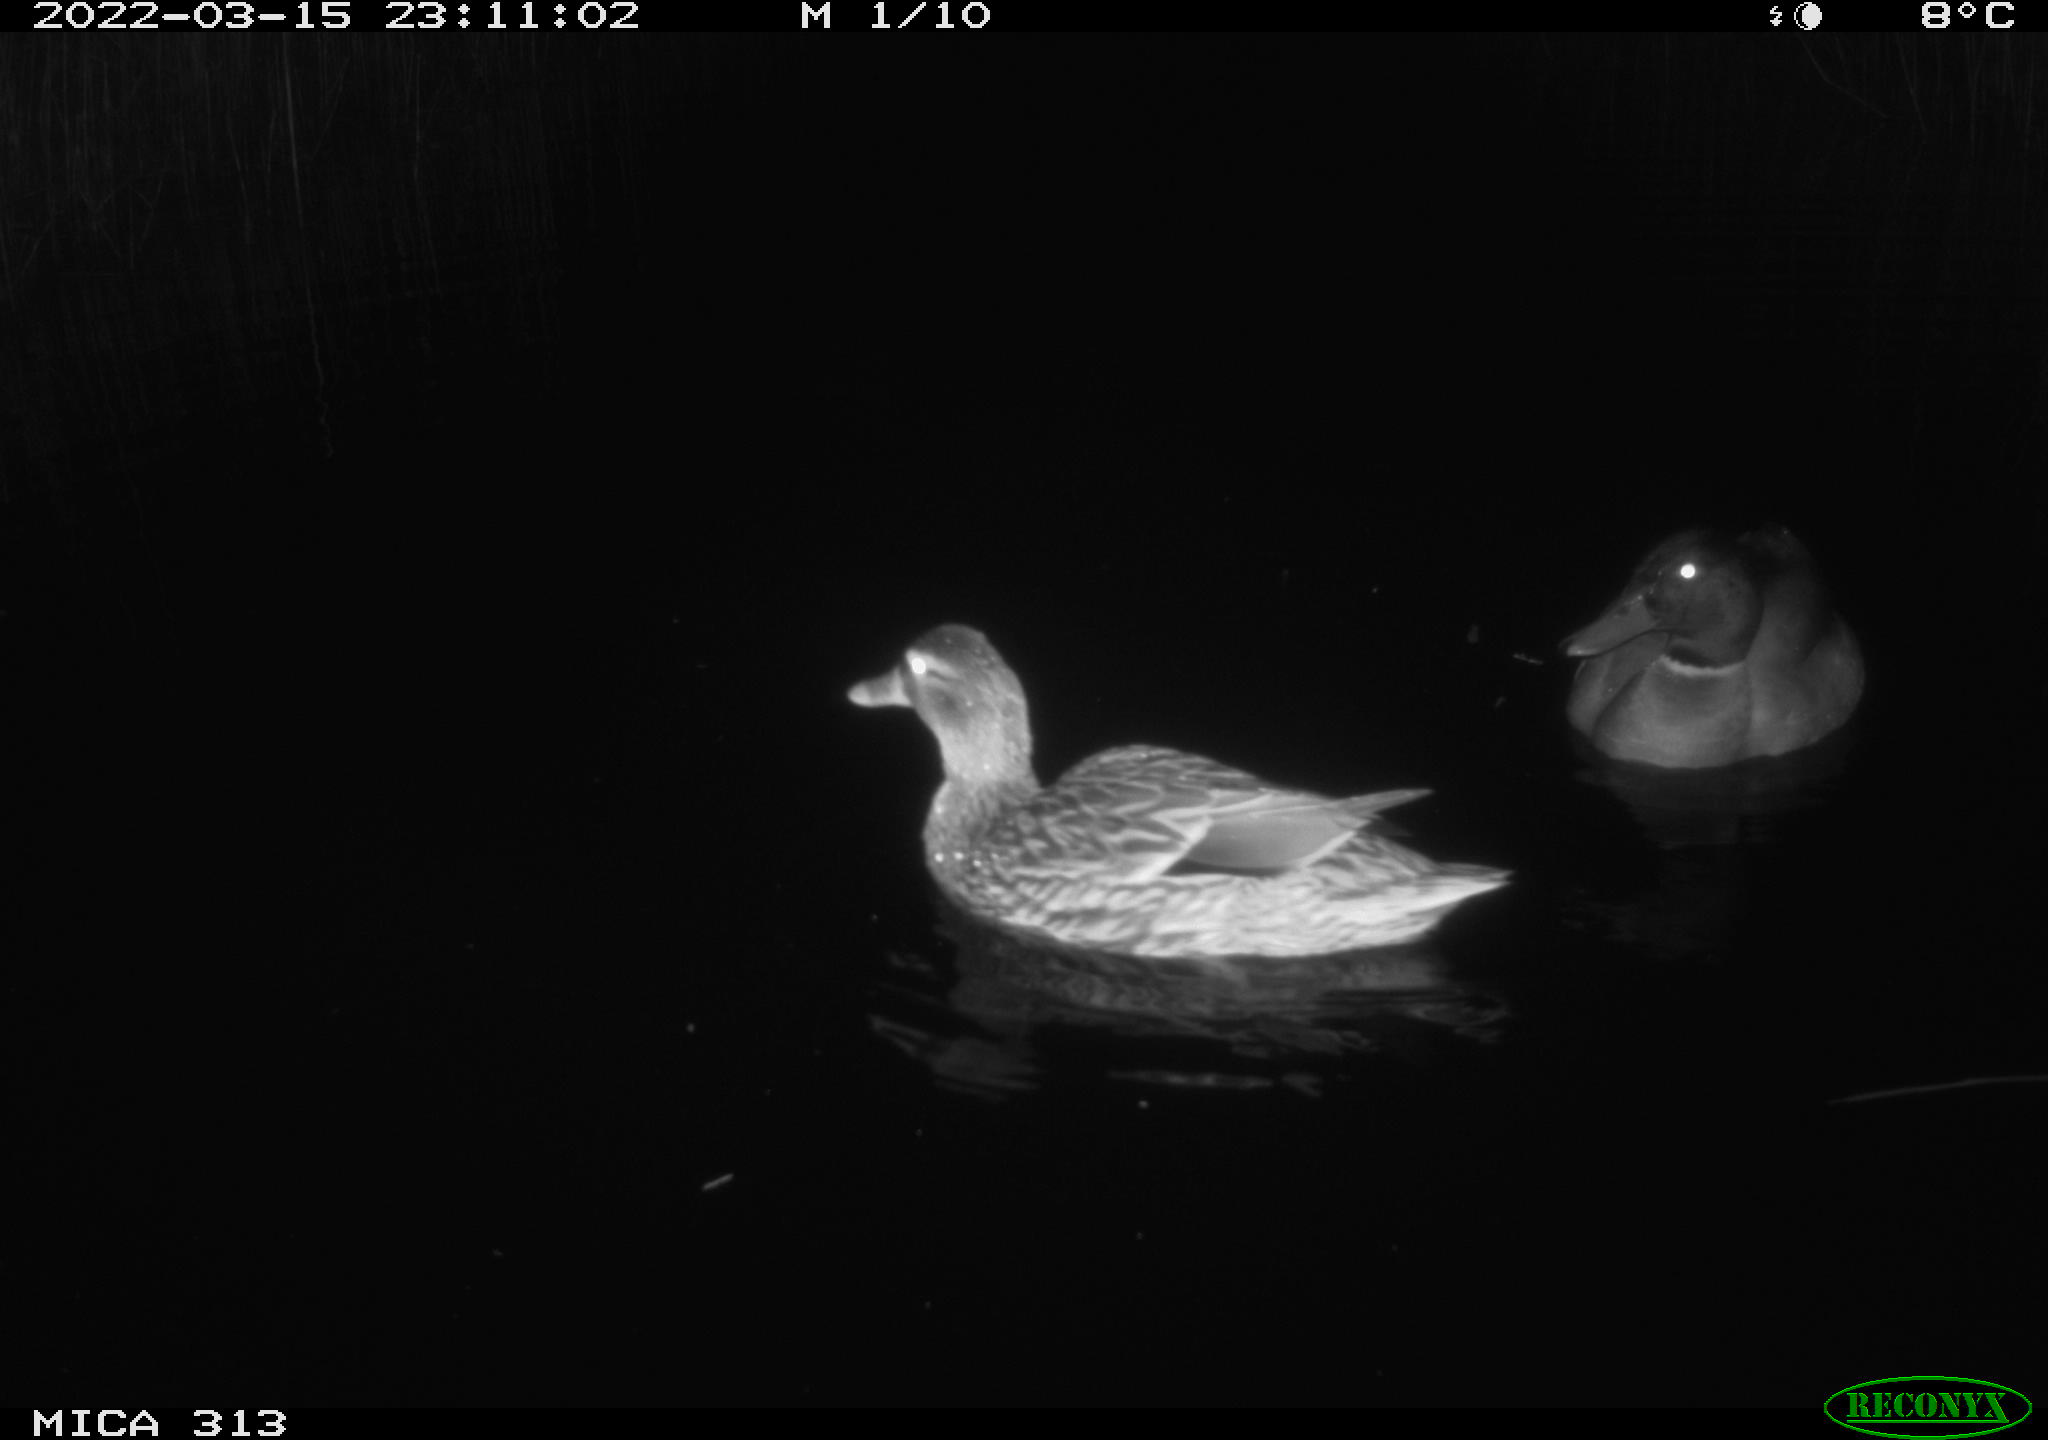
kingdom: Animalia
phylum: Chordata
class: Aves
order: Anseriformes
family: Anatidae
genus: Anas
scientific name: Anas platyrhynchos
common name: Mallard
